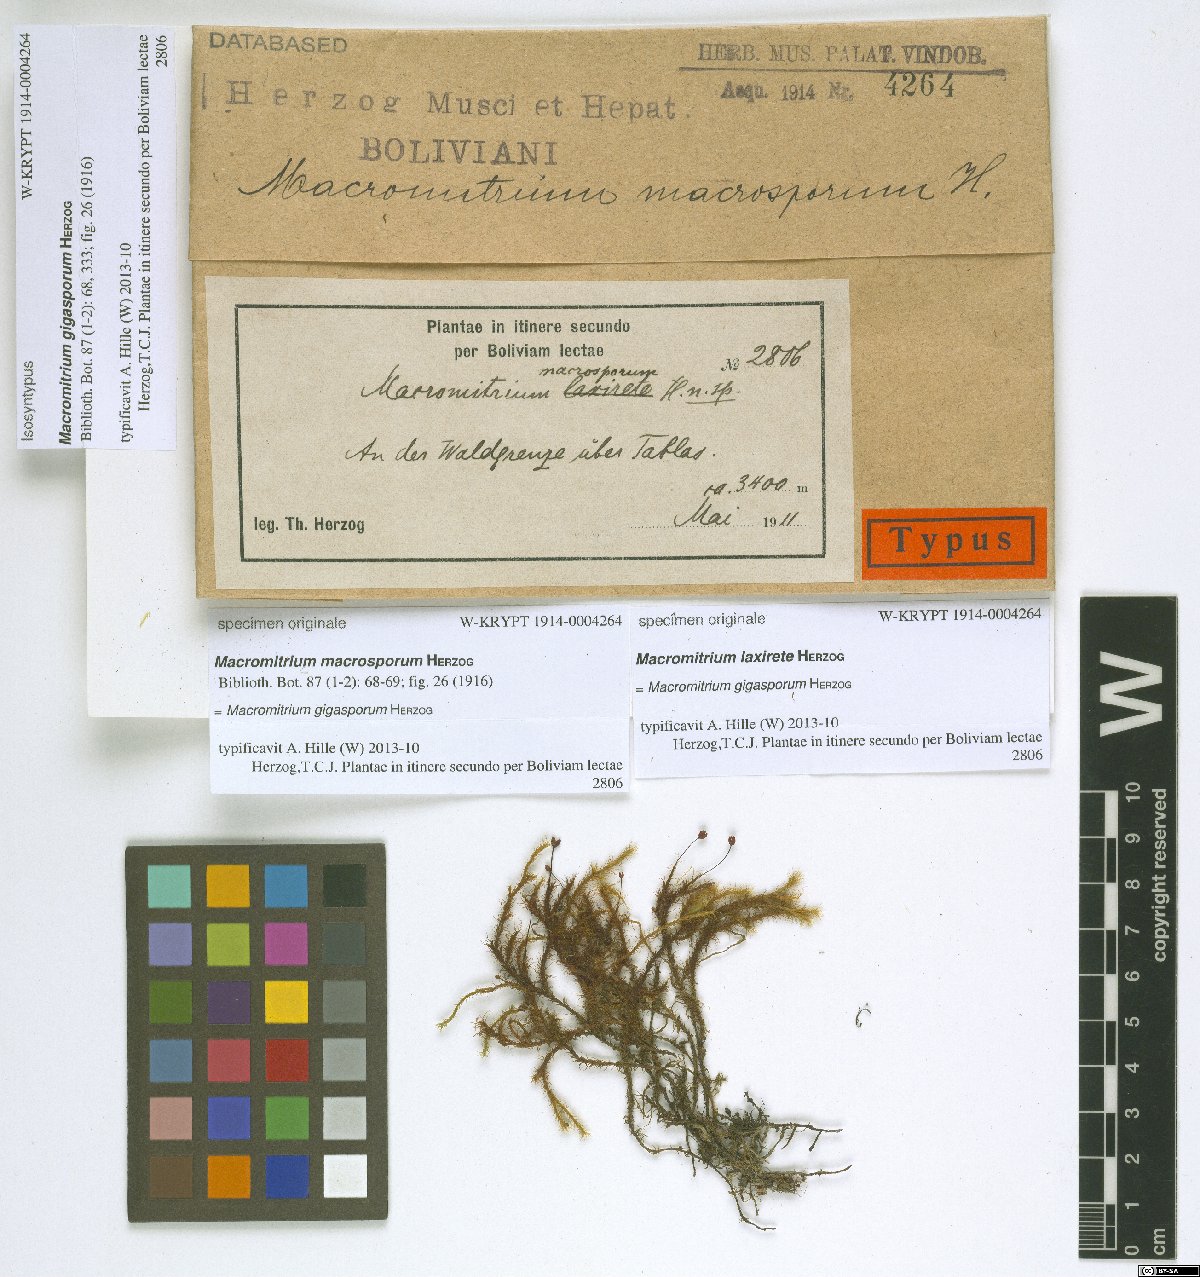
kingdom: Plantae
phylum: Bryophyta
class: Bryopsida
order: Orthotrichales
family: Orthotrichaceae
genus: Macromitrium
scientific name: Macromitrium gigasporum
